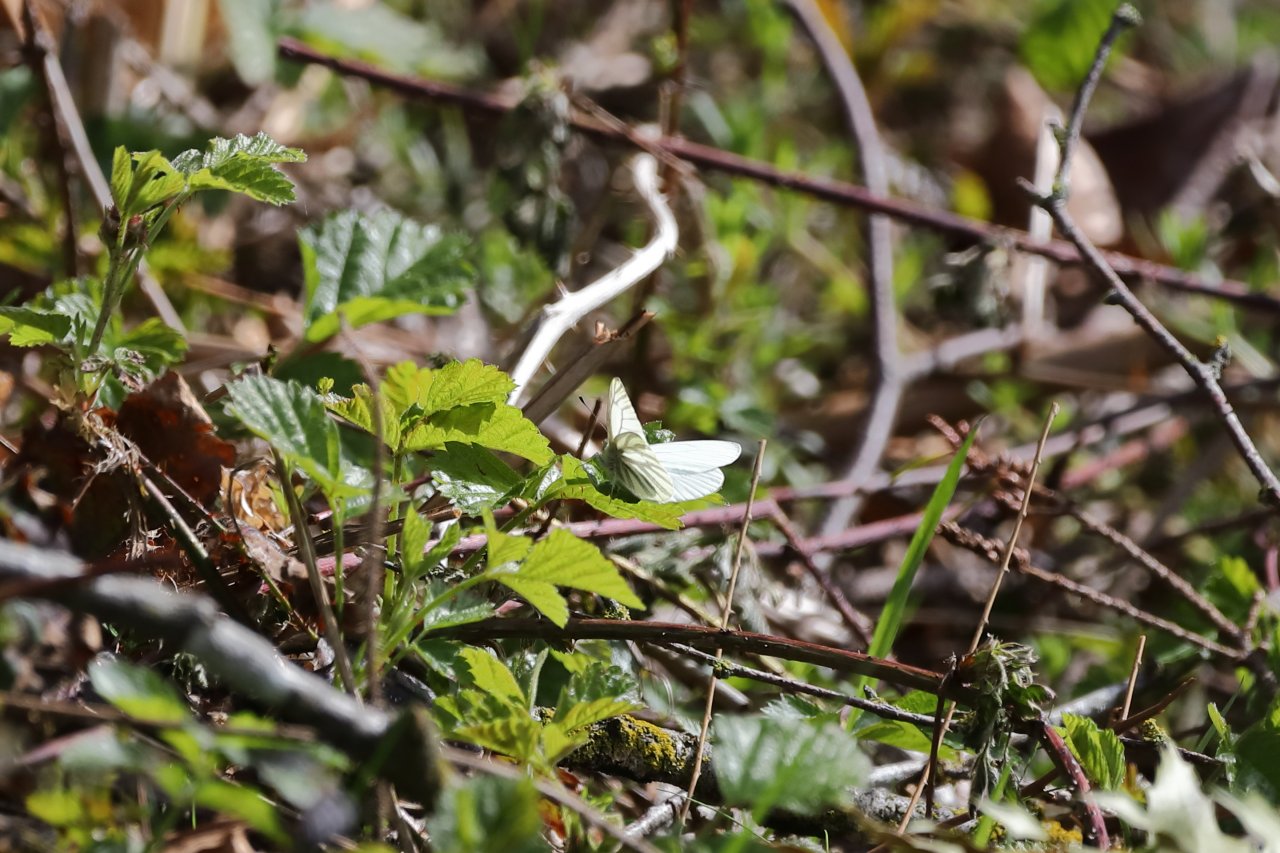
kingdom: Animalia
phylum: Arthropoda
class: Insecta
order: Lepidoptera
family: Pieridae
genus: Pieris
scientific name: Pieris marginalis
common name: Margined White
